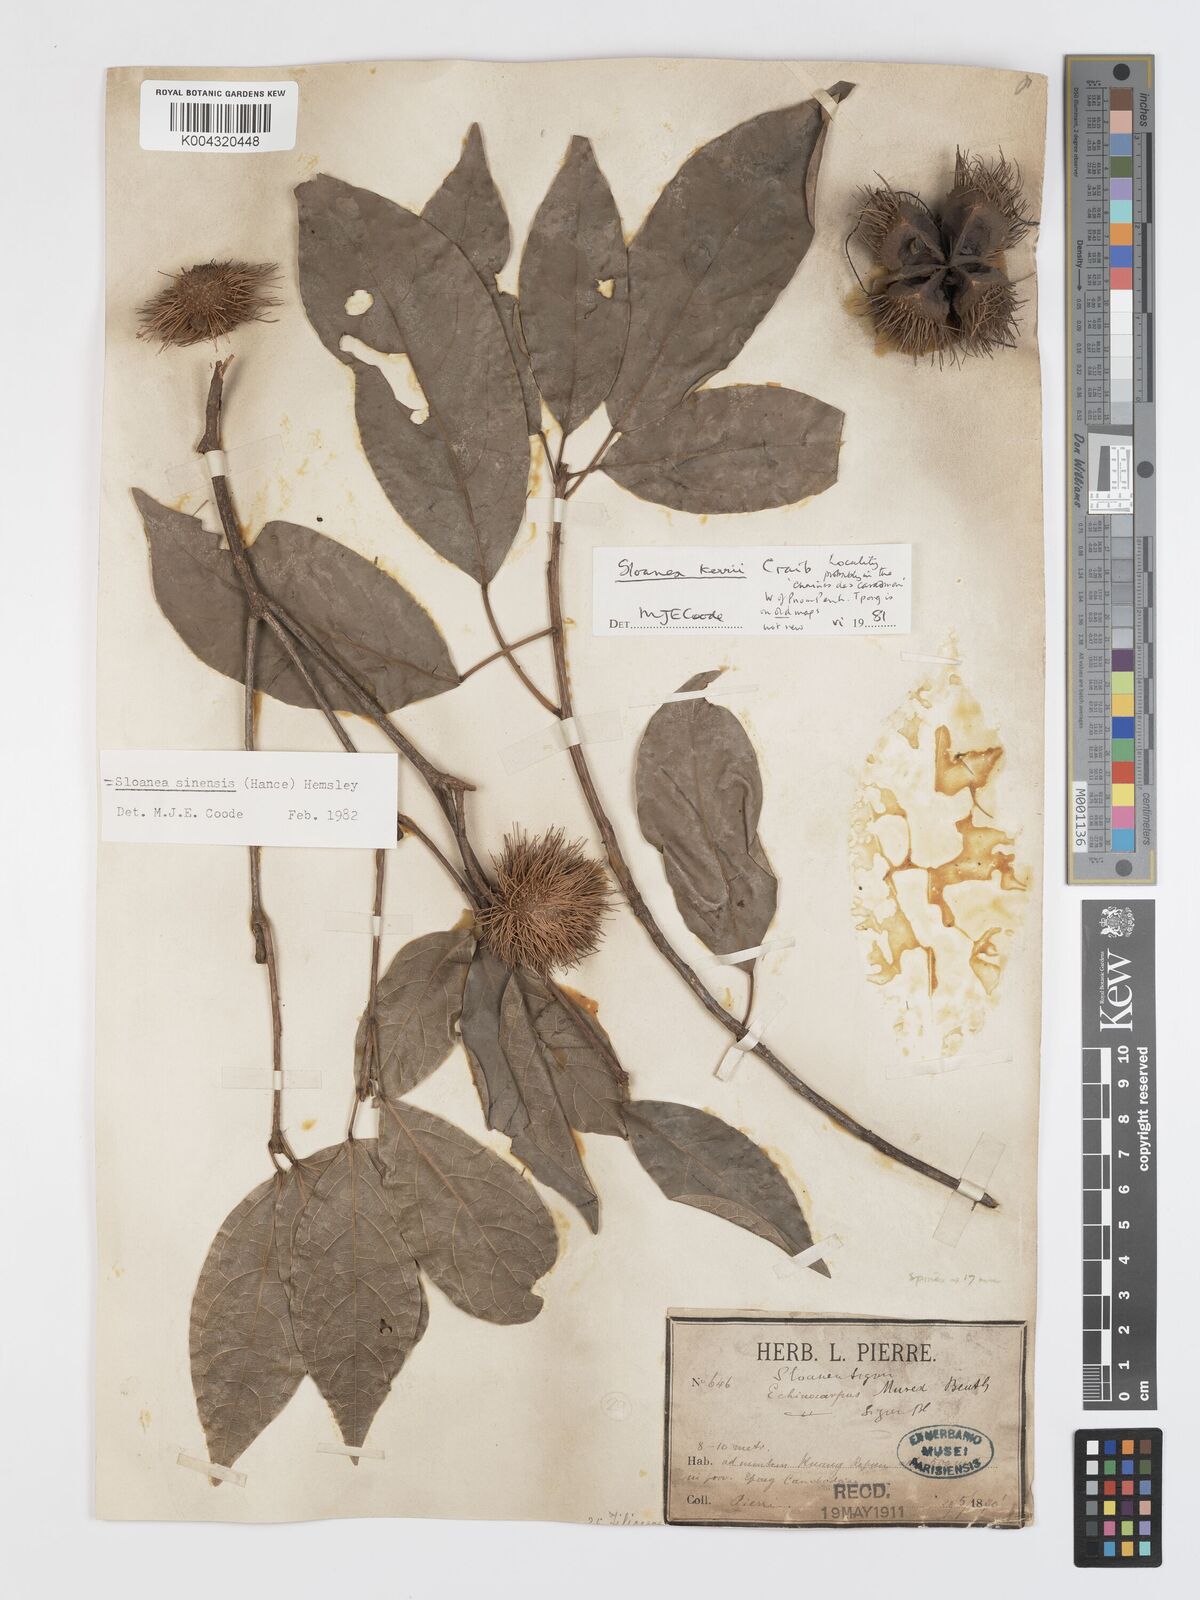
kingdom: Plantae
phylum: Tracheophyta
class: Magnoliopsida
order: Oxalidales
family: Elaeocarpaceae
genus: Sloanea
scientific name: Sloanea sinensis
